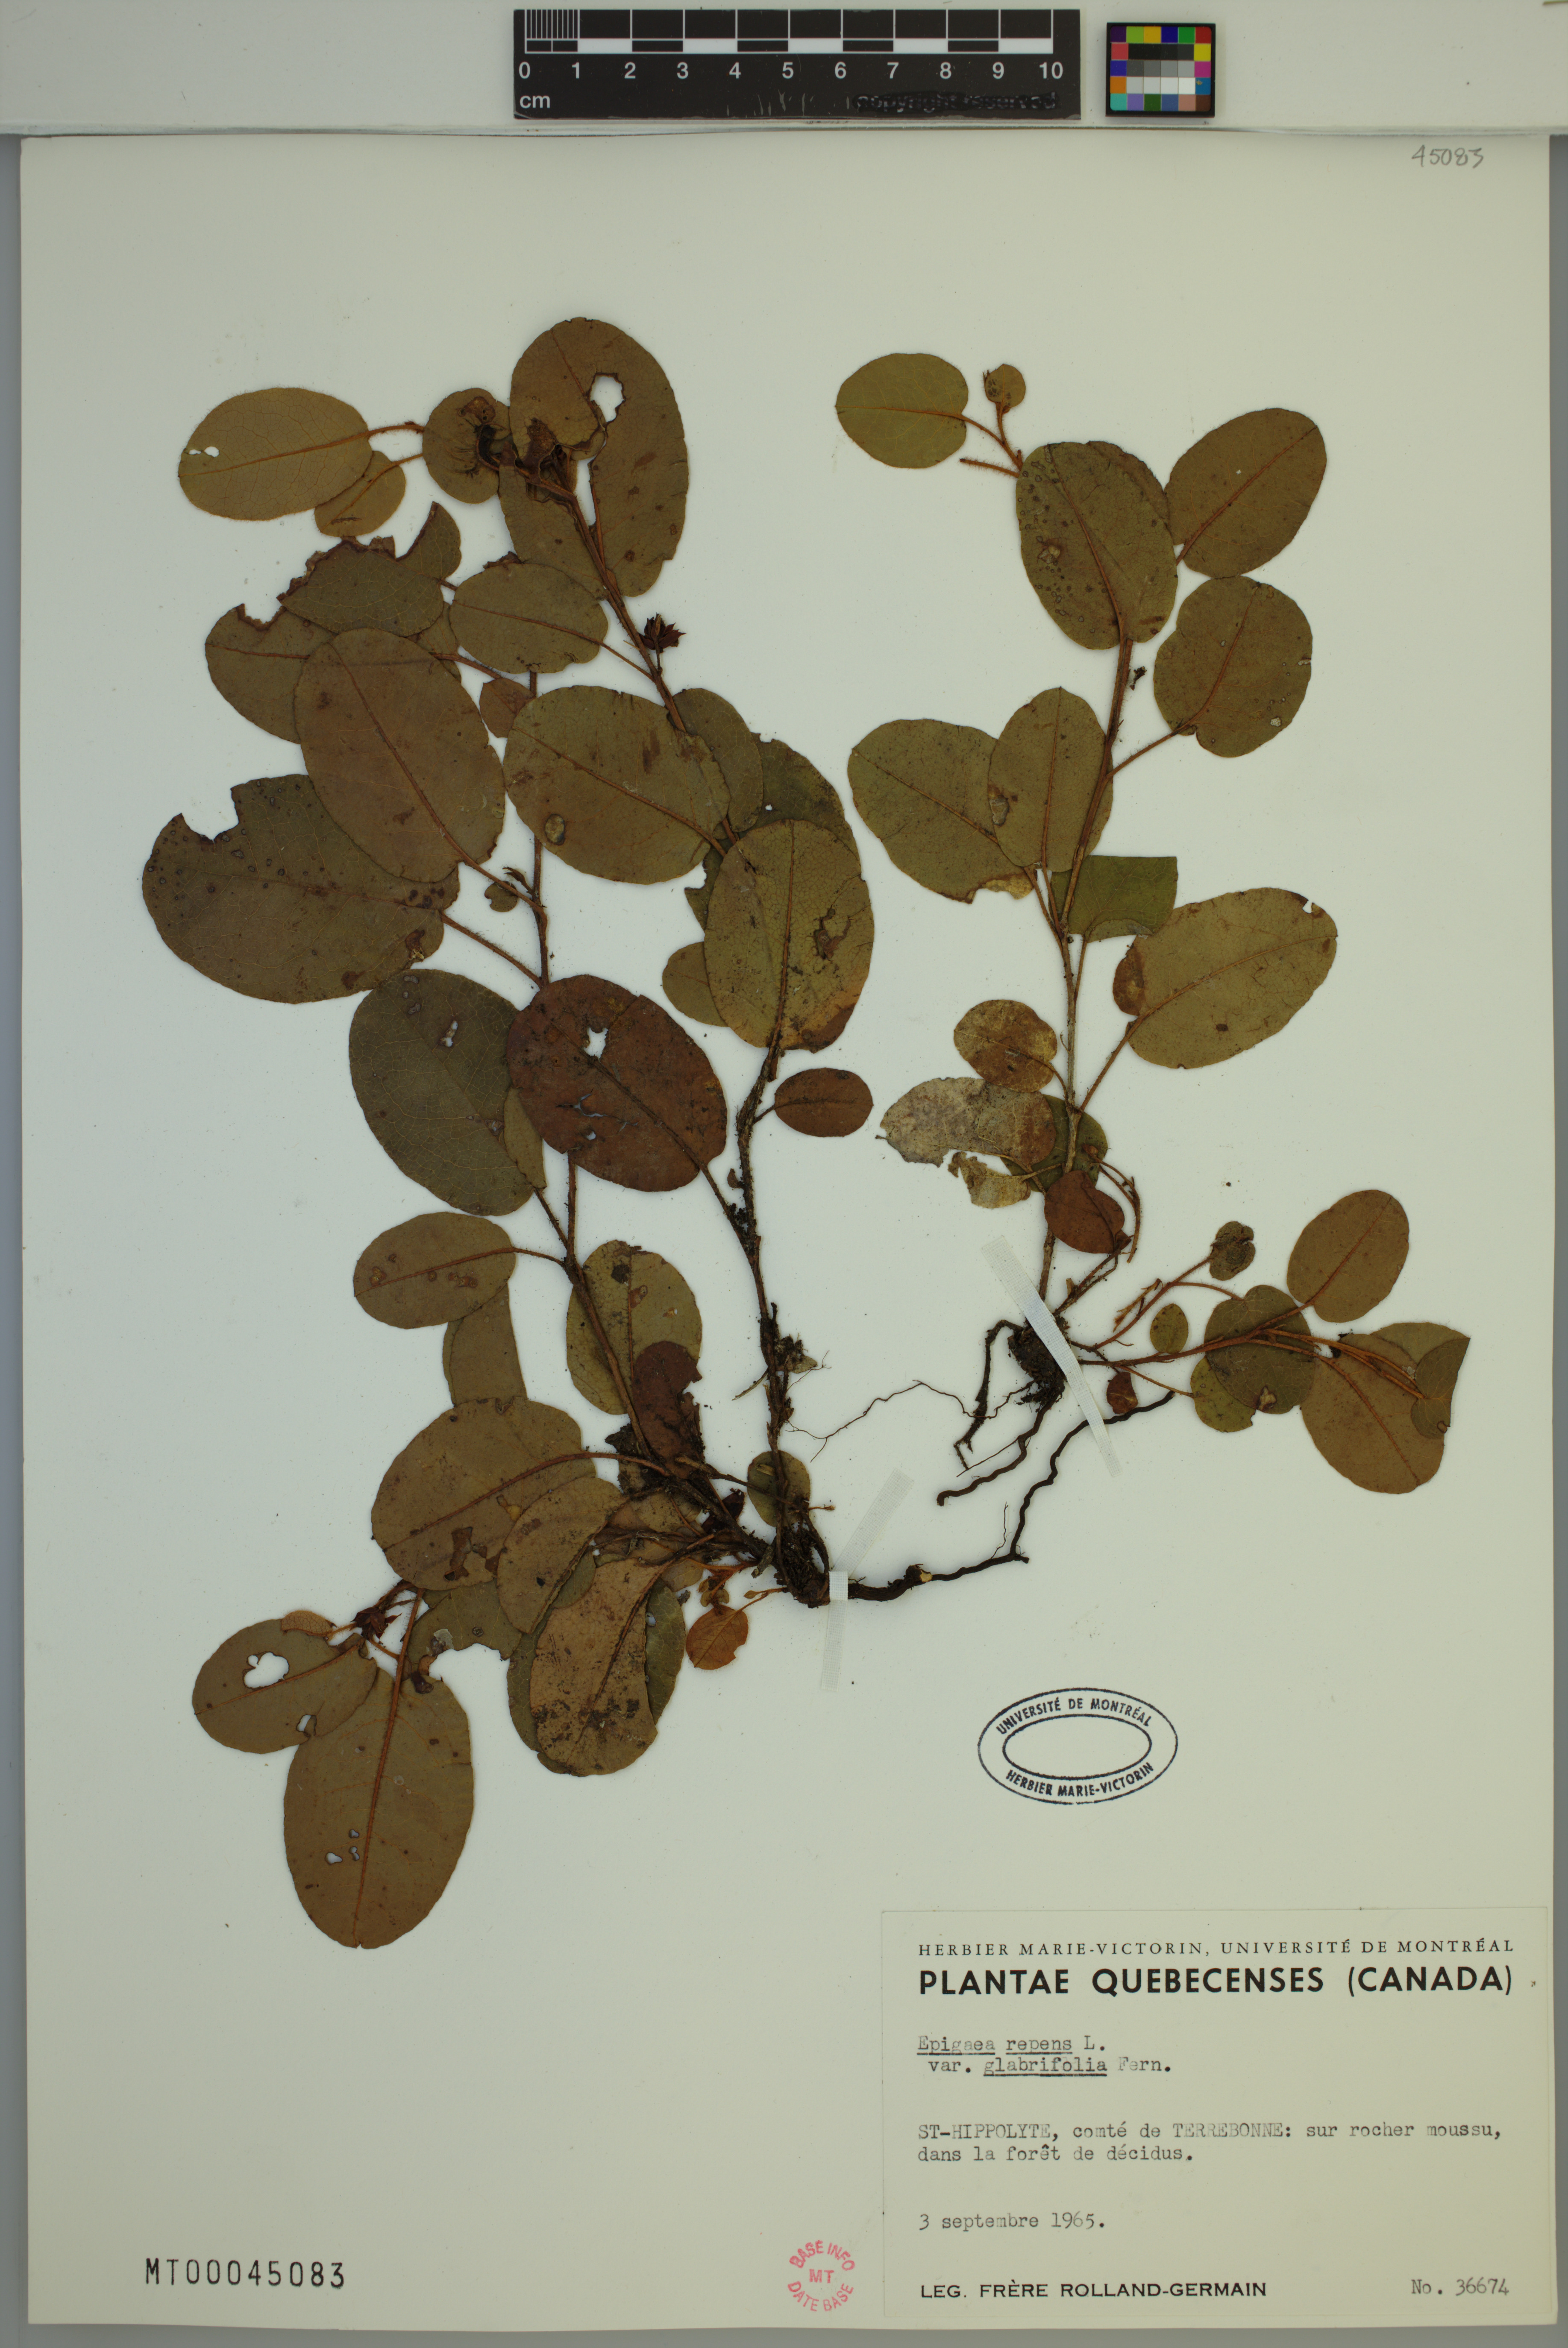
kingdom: Plantae
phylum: Tracheophyta
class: Magnoliopsida
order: Ericales
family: Ericaceae
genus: Epigaea
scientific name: Epigaea repens
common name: Gravelroot
